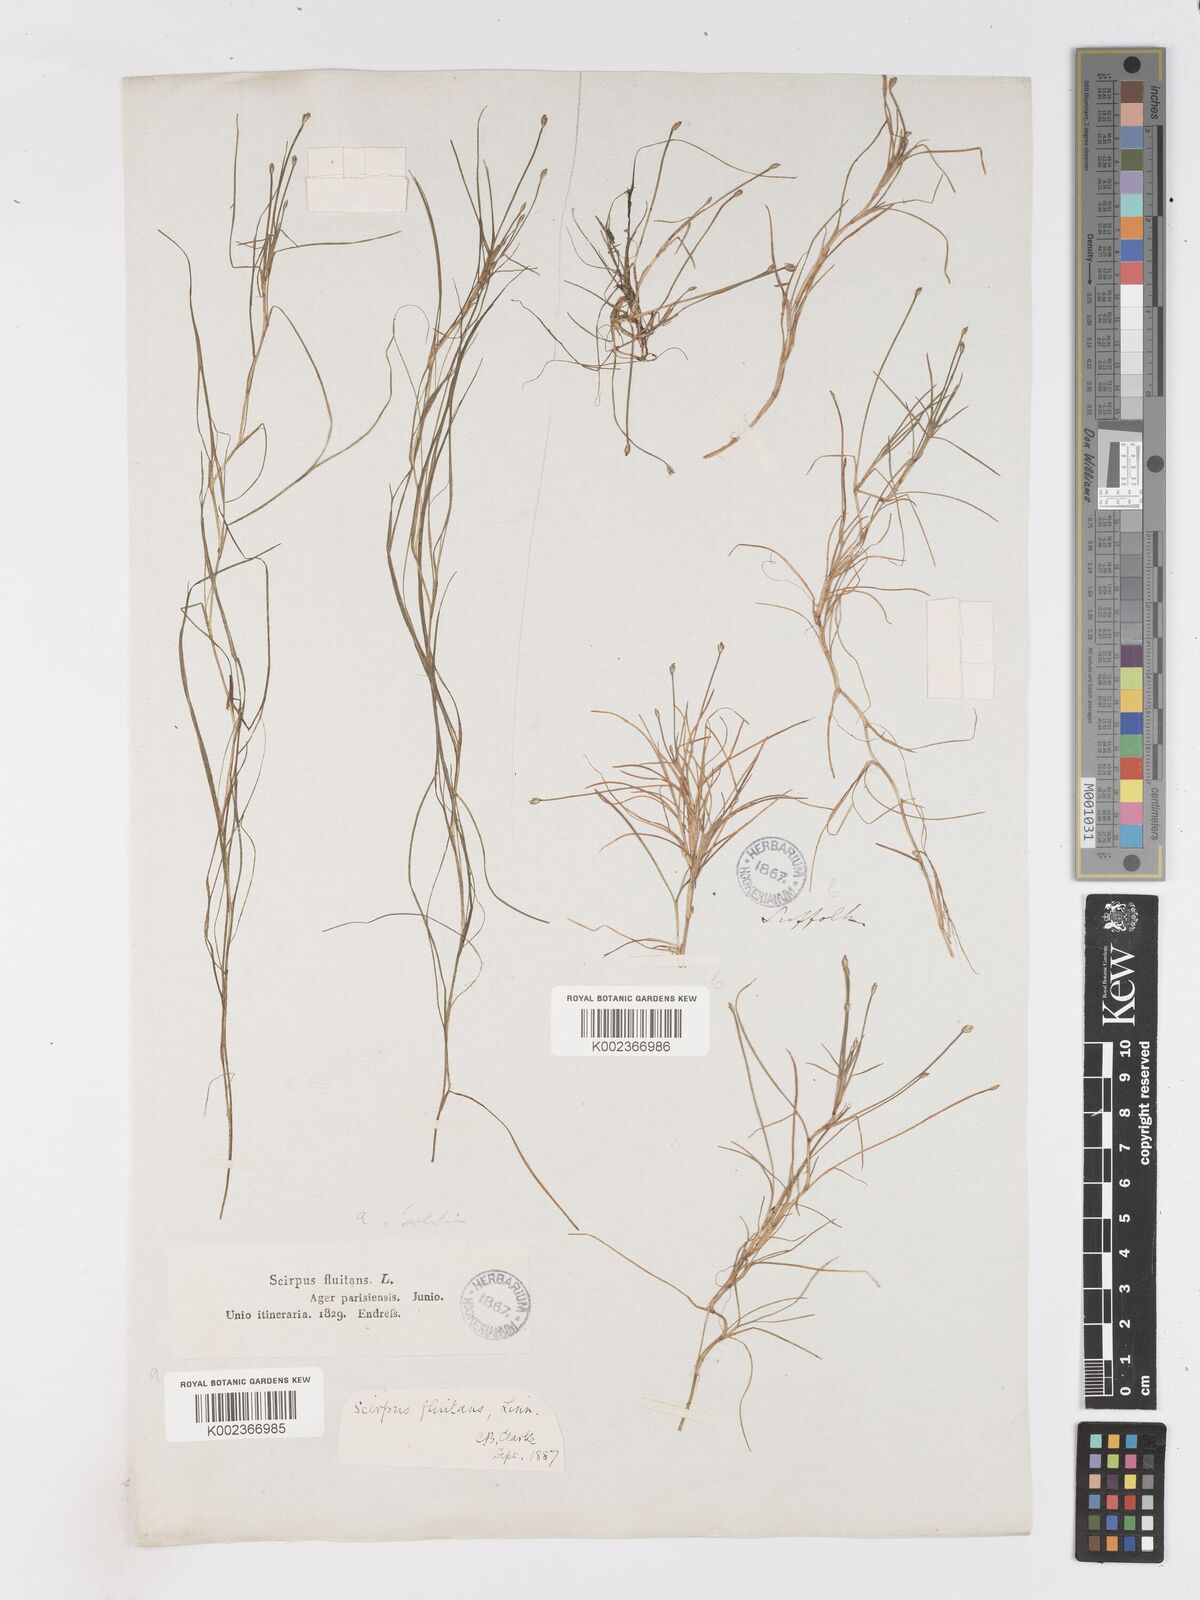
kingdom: Plantae
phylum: Tracheophyta
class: Liliopsida
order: Poales
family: Cyperaceae
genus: Isolepis
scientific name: Isolepis fluitans
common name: Floating club-rush
